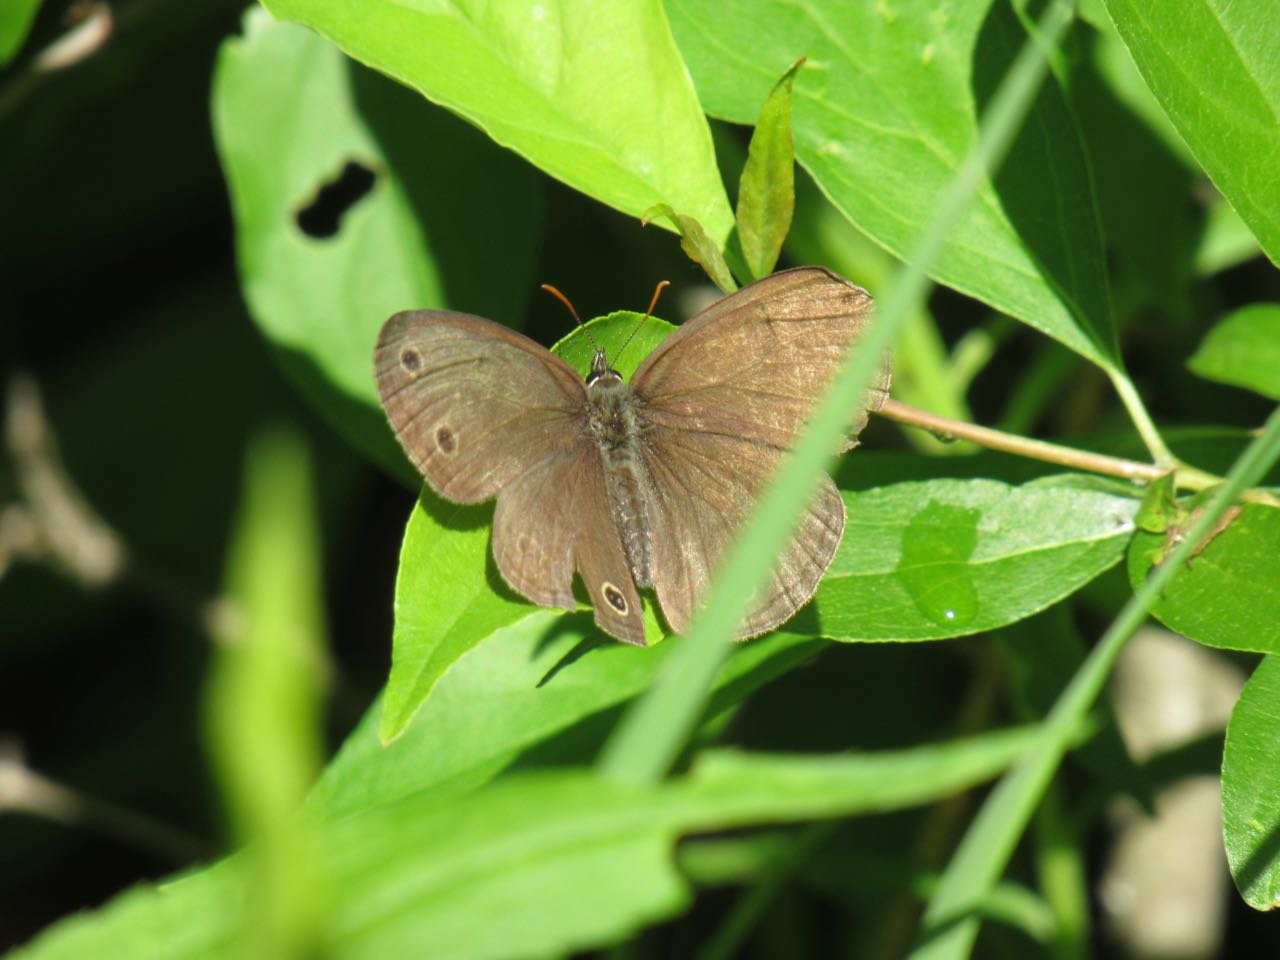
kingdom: Animalia
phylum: Arthropoda
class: Insecta
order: Lepidoptera
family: Nymphalidae
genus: Euptychia
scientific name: Euptychia cymela
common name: Little Wood Satyr
